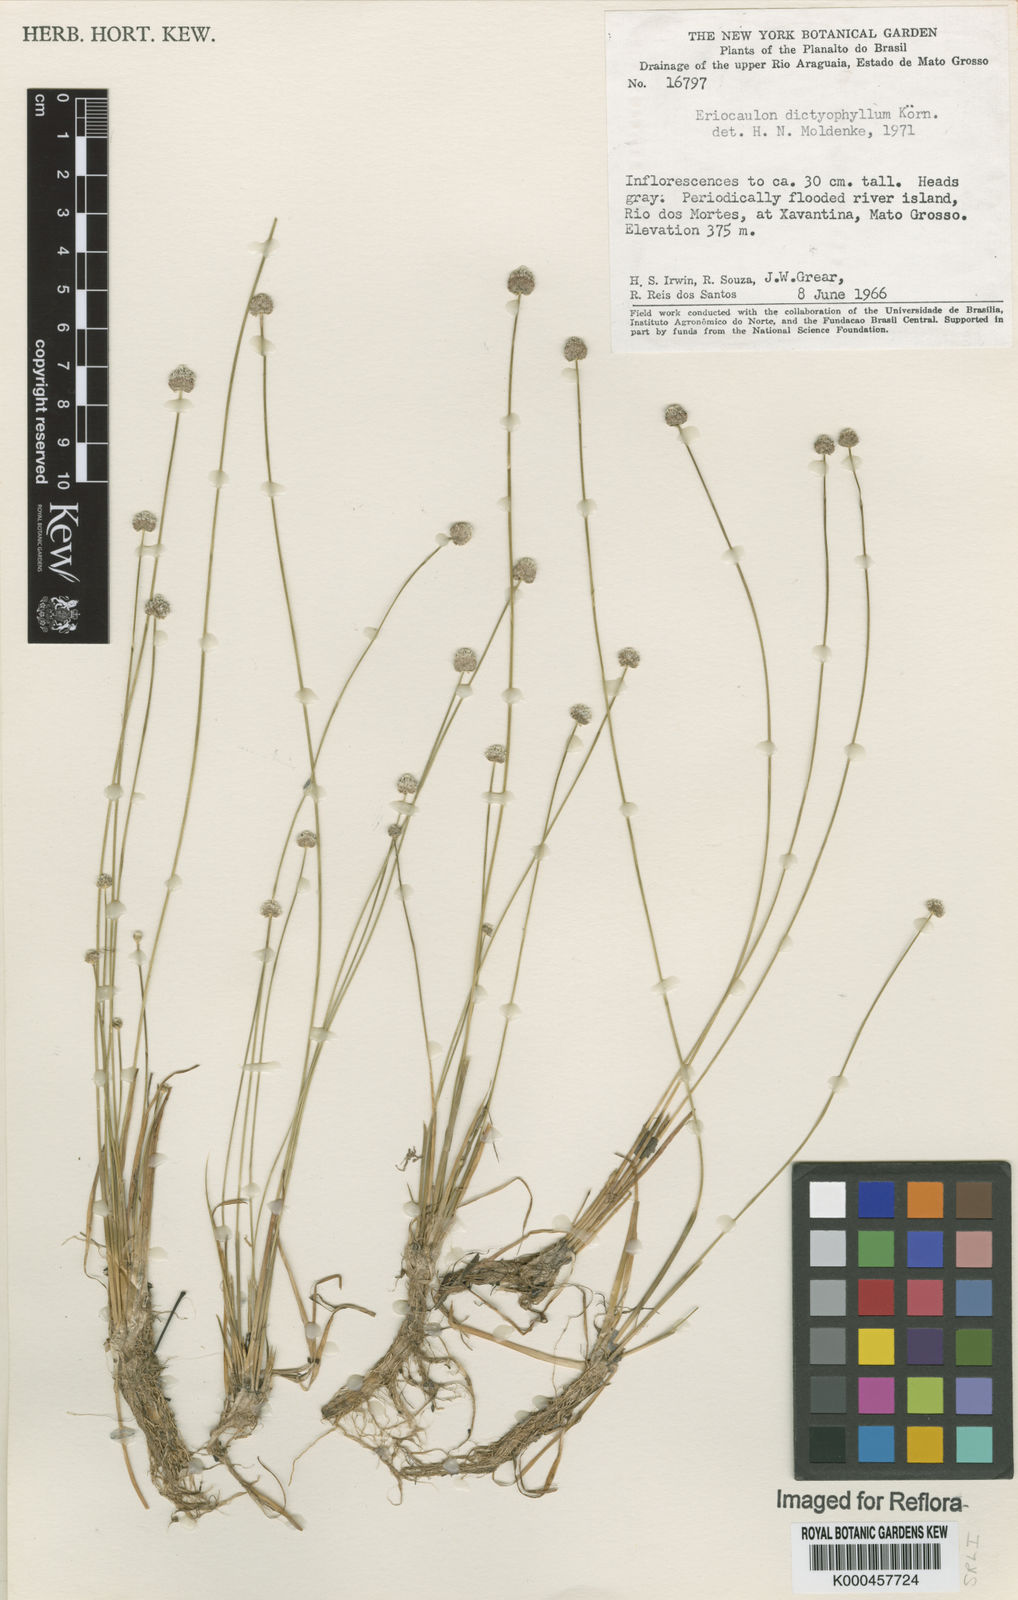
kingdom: Plantae
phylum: Tracheophyta
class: Liliopsida
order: Poales
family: Eriocaulaceae
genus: Eriocaulon
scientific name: Eriocaulon
